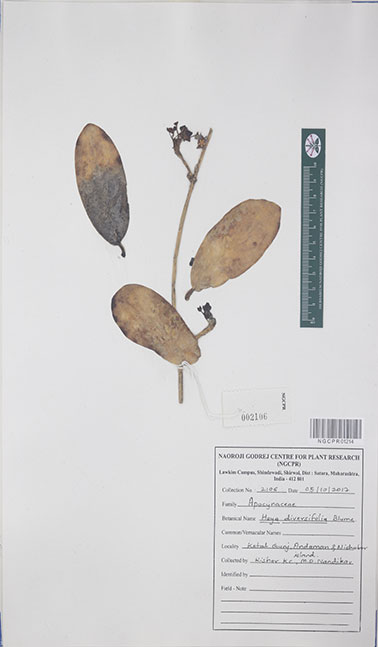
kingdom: Plantae
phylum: Tracheophyta
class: Magnoliopsida
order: Gentianales
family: Apocynaceae
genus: Hoya
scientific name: Hoya diversifolia
